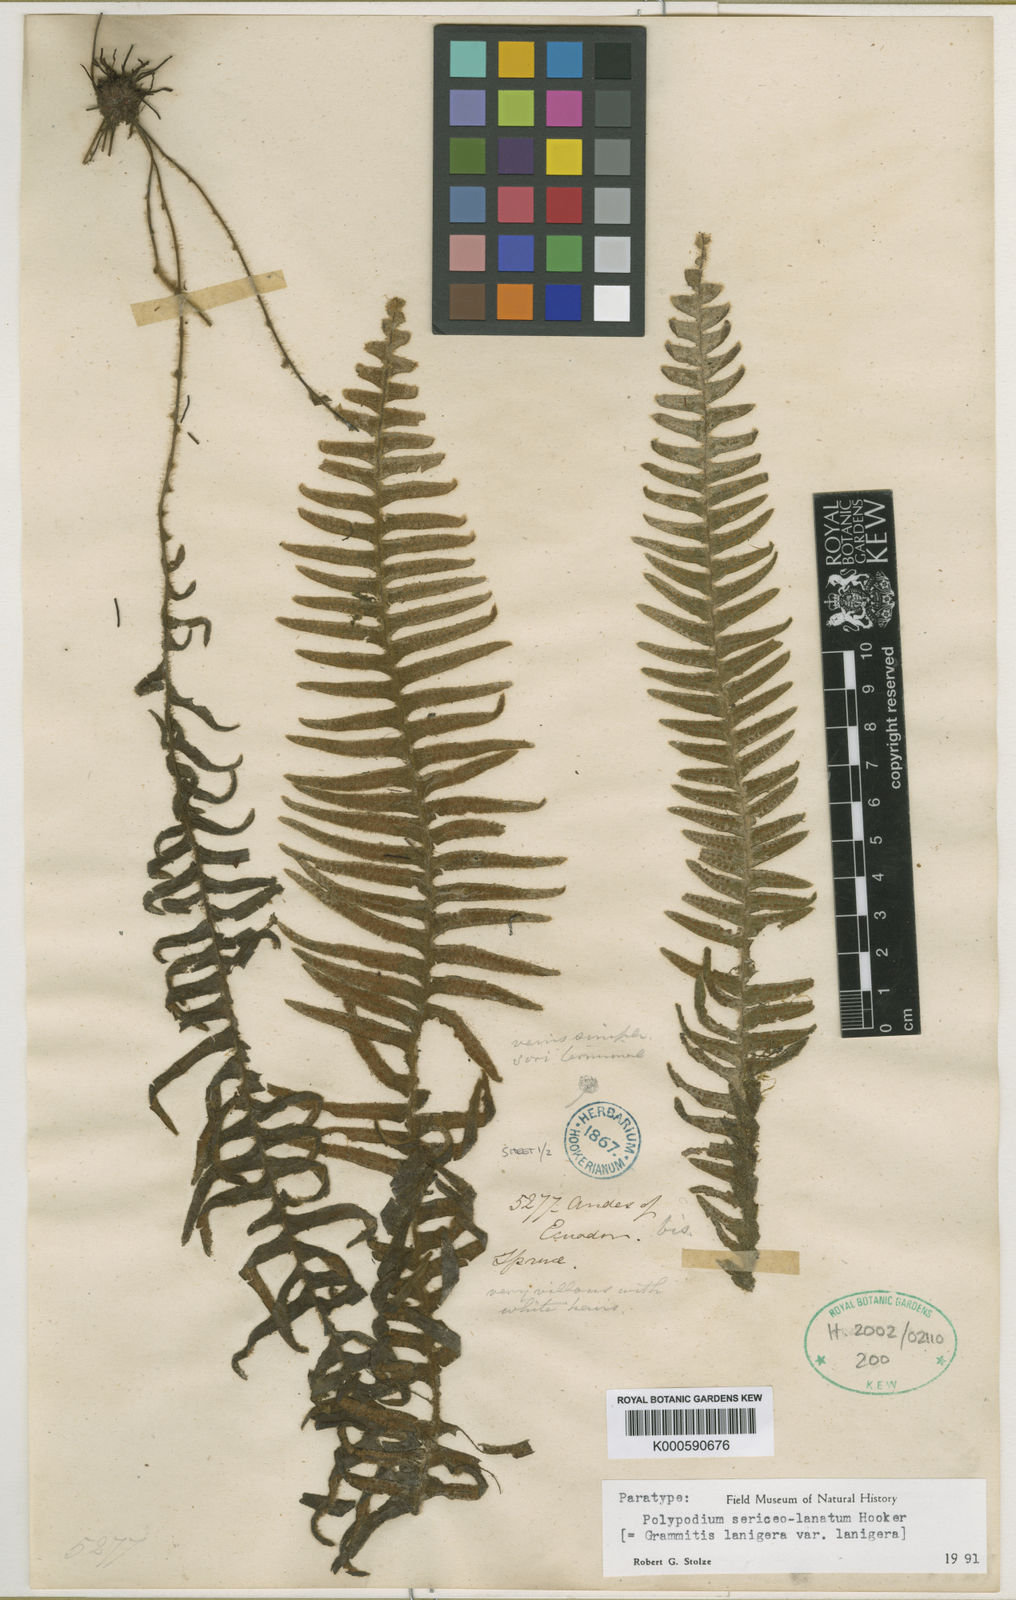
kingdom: Plantae
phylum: Tracheophyta
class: Polypodiopsida
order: Polypodiales
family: Polypodiaceae
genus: Terpsichore
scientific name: Terpsichore
